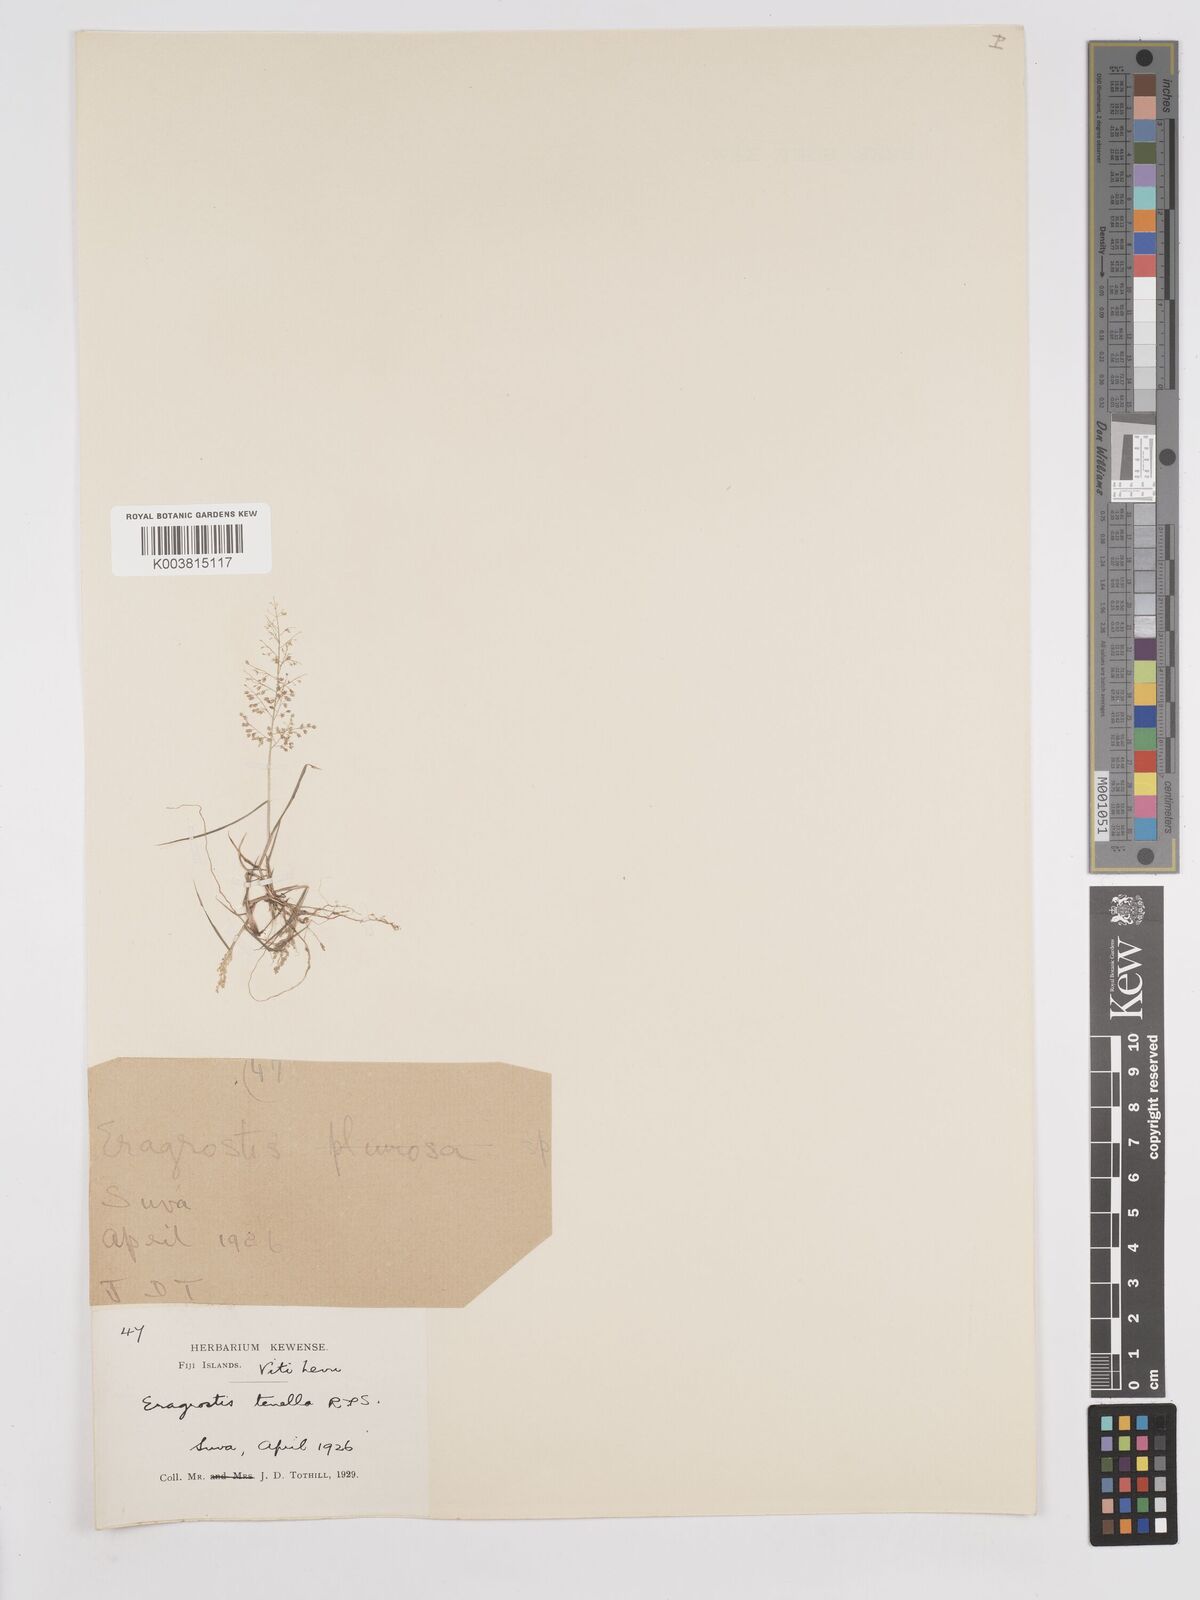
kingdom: Plantae
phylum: Tracheophyta
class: Liliopsida
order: Poales
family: Poaceae
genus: Eragrostis
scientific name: Eragrostis tenella
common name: Japanese lovegrass
